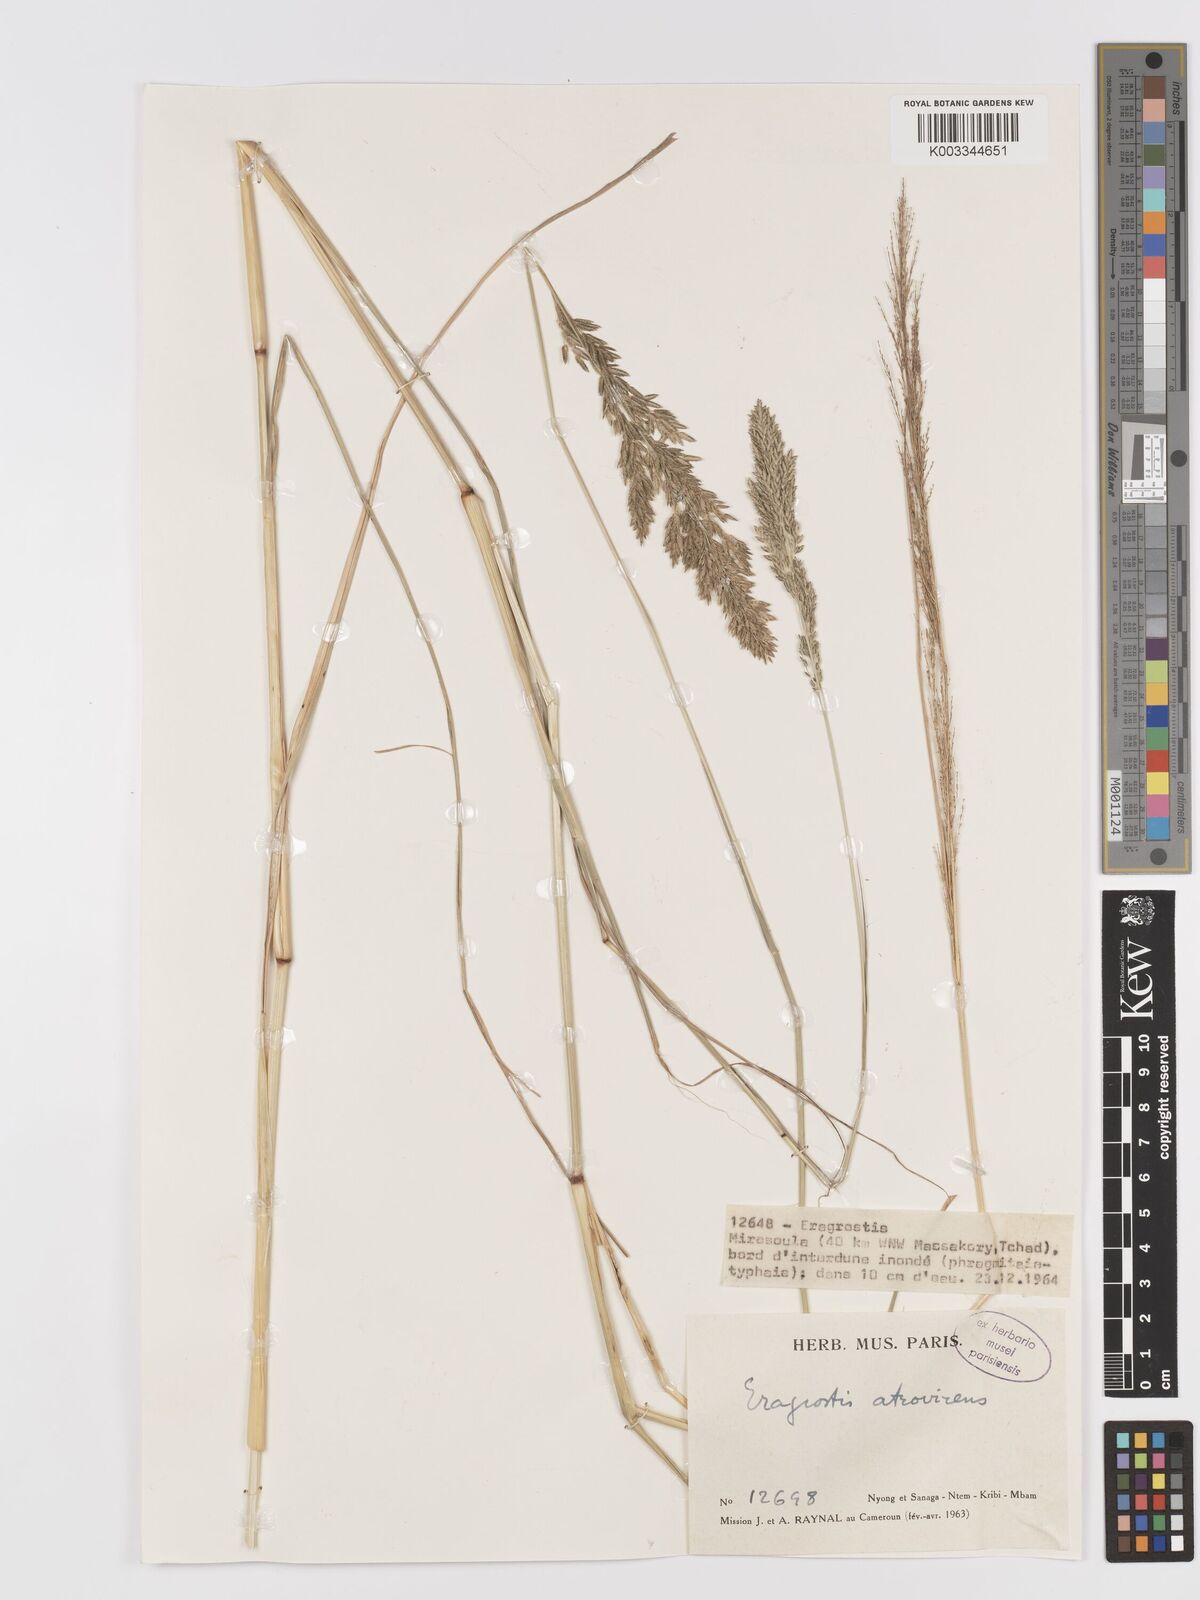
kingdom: Plantae
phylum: Tracheophyta
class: Liliopsida
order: Poales
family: Poaceae
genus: Eragrostis
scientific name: Eragrostis atrovirens
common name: Thalia lovegrass
